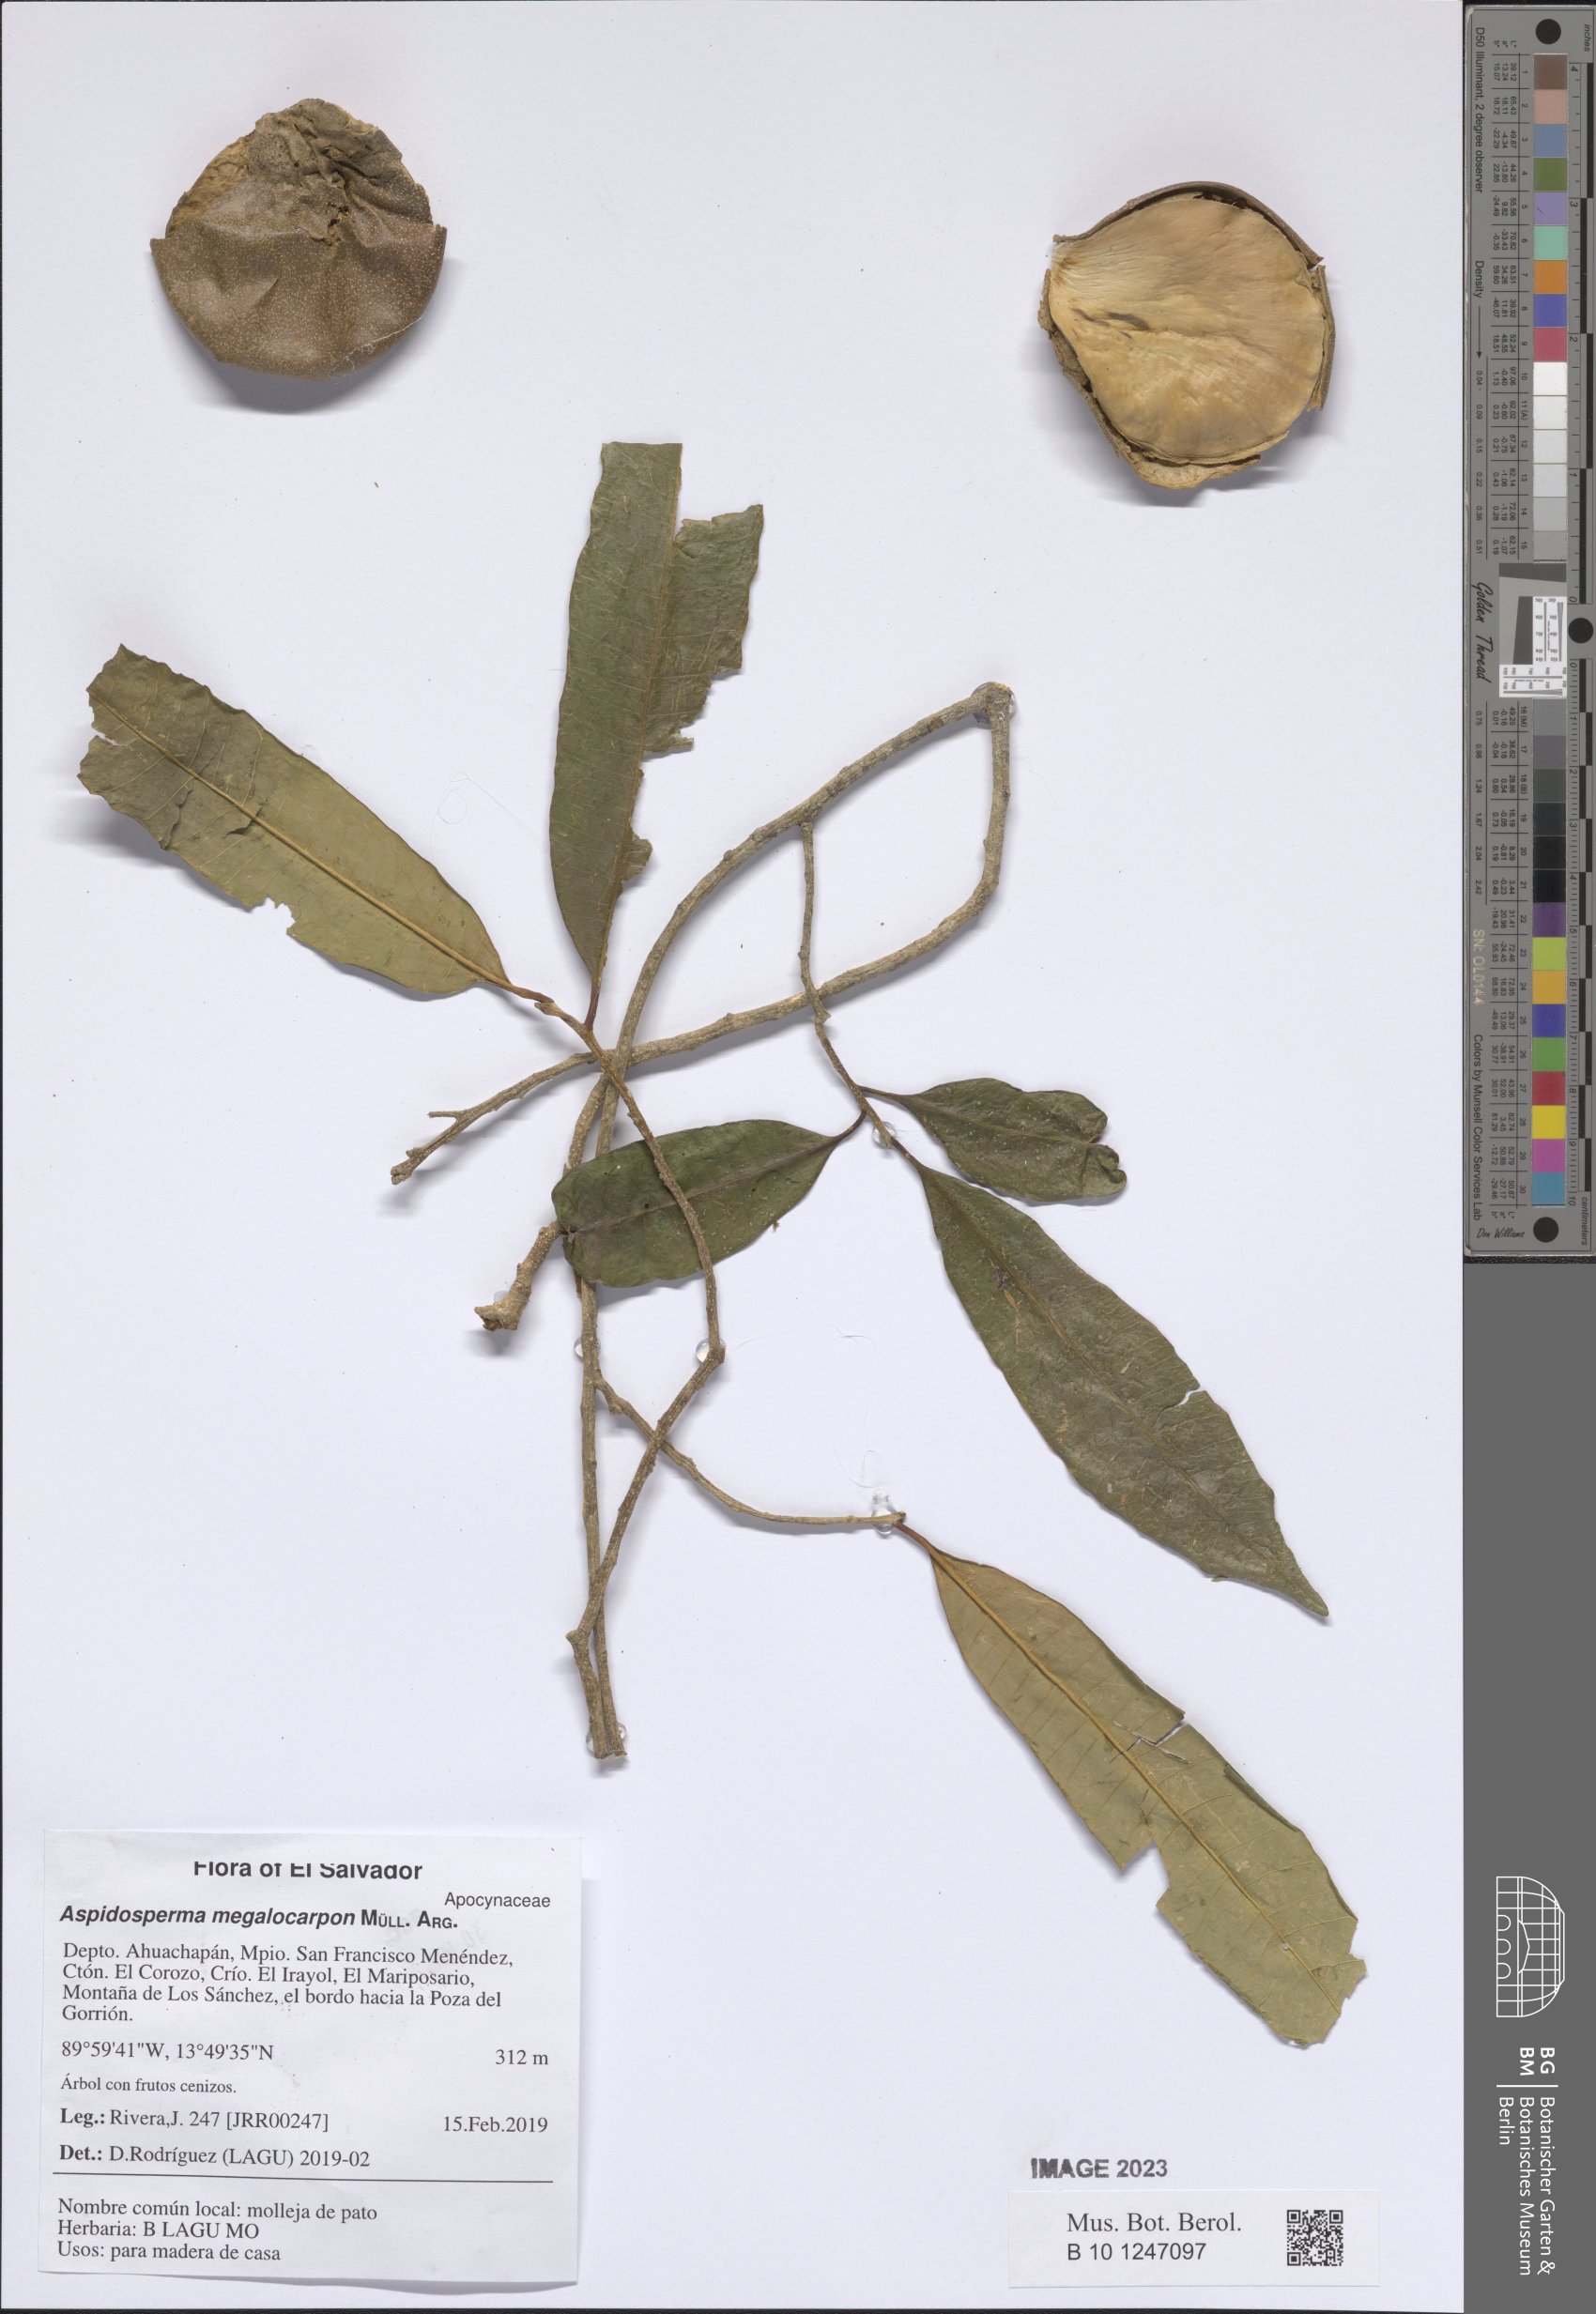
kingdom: Plantae
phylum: Tracheophyta
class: Magnoliopsida
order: Gentianales
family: Apocynaceae
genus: Aspidosperma
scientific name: Aspidosperma megalocarpon
